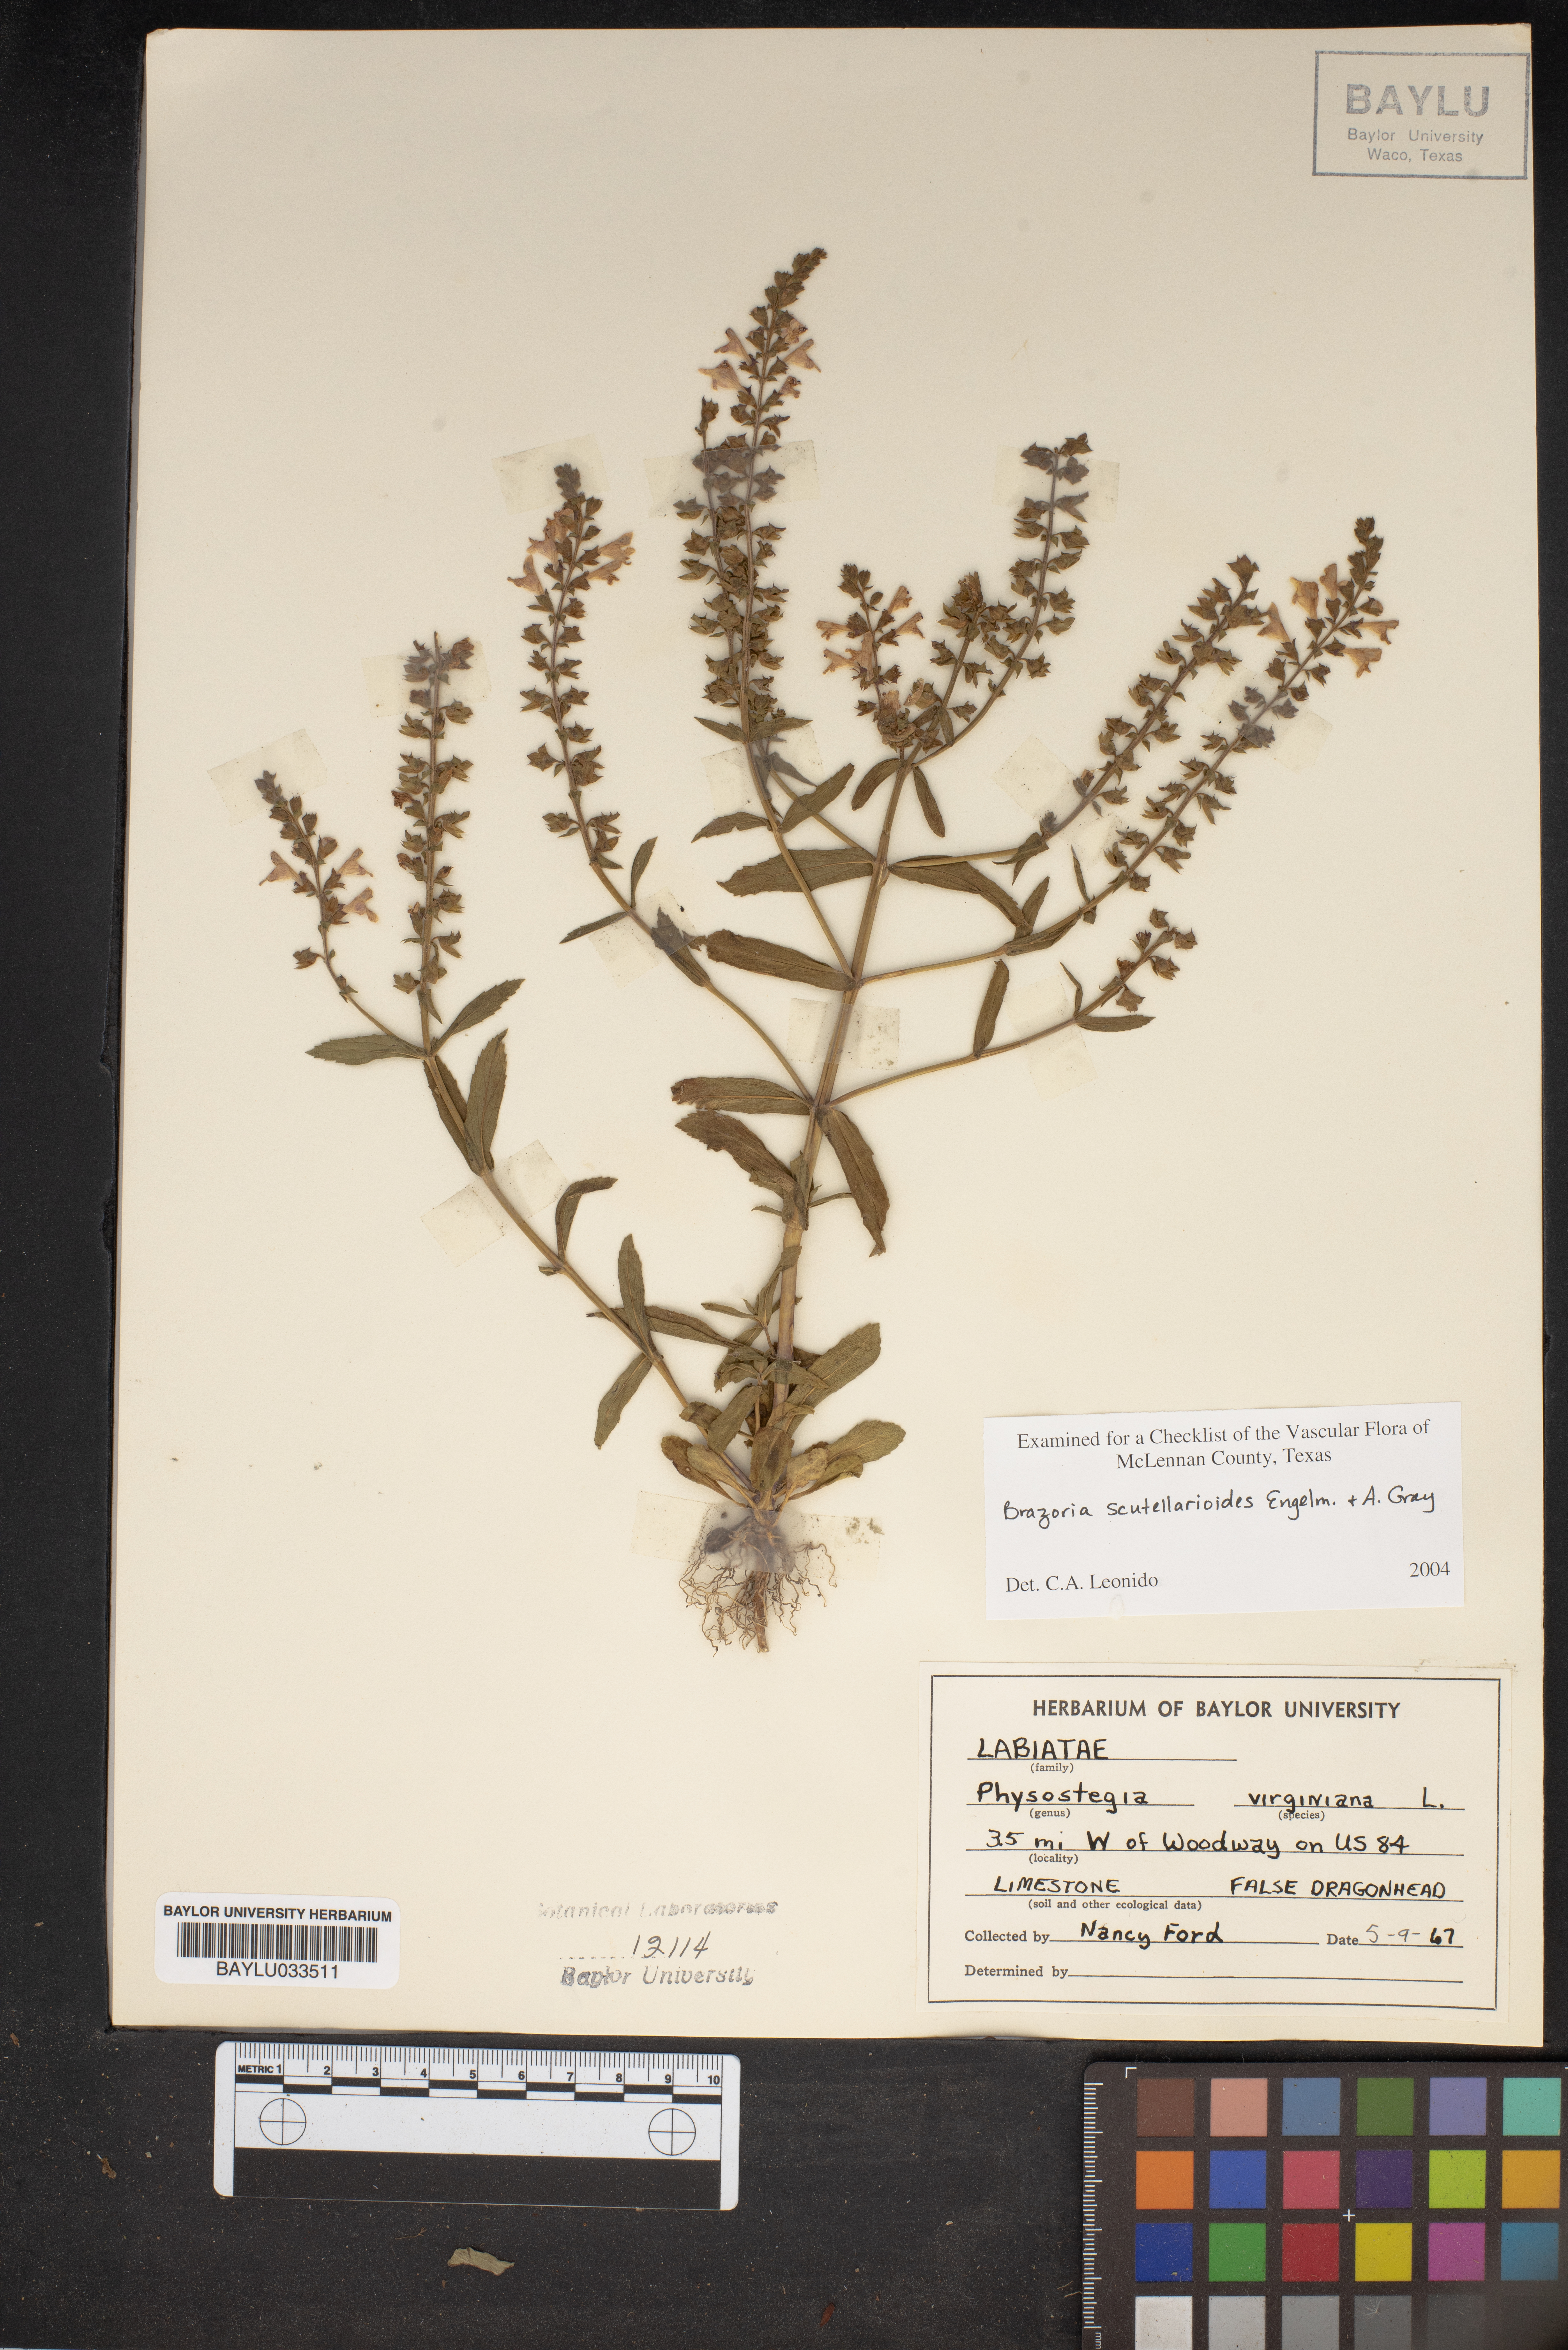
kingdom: Plantae
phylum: Tracheophyta
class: Magnoliopsida
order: Lamiales
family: Lamiaceae
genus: Warnockia
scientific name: Warnockia scutellarioides
